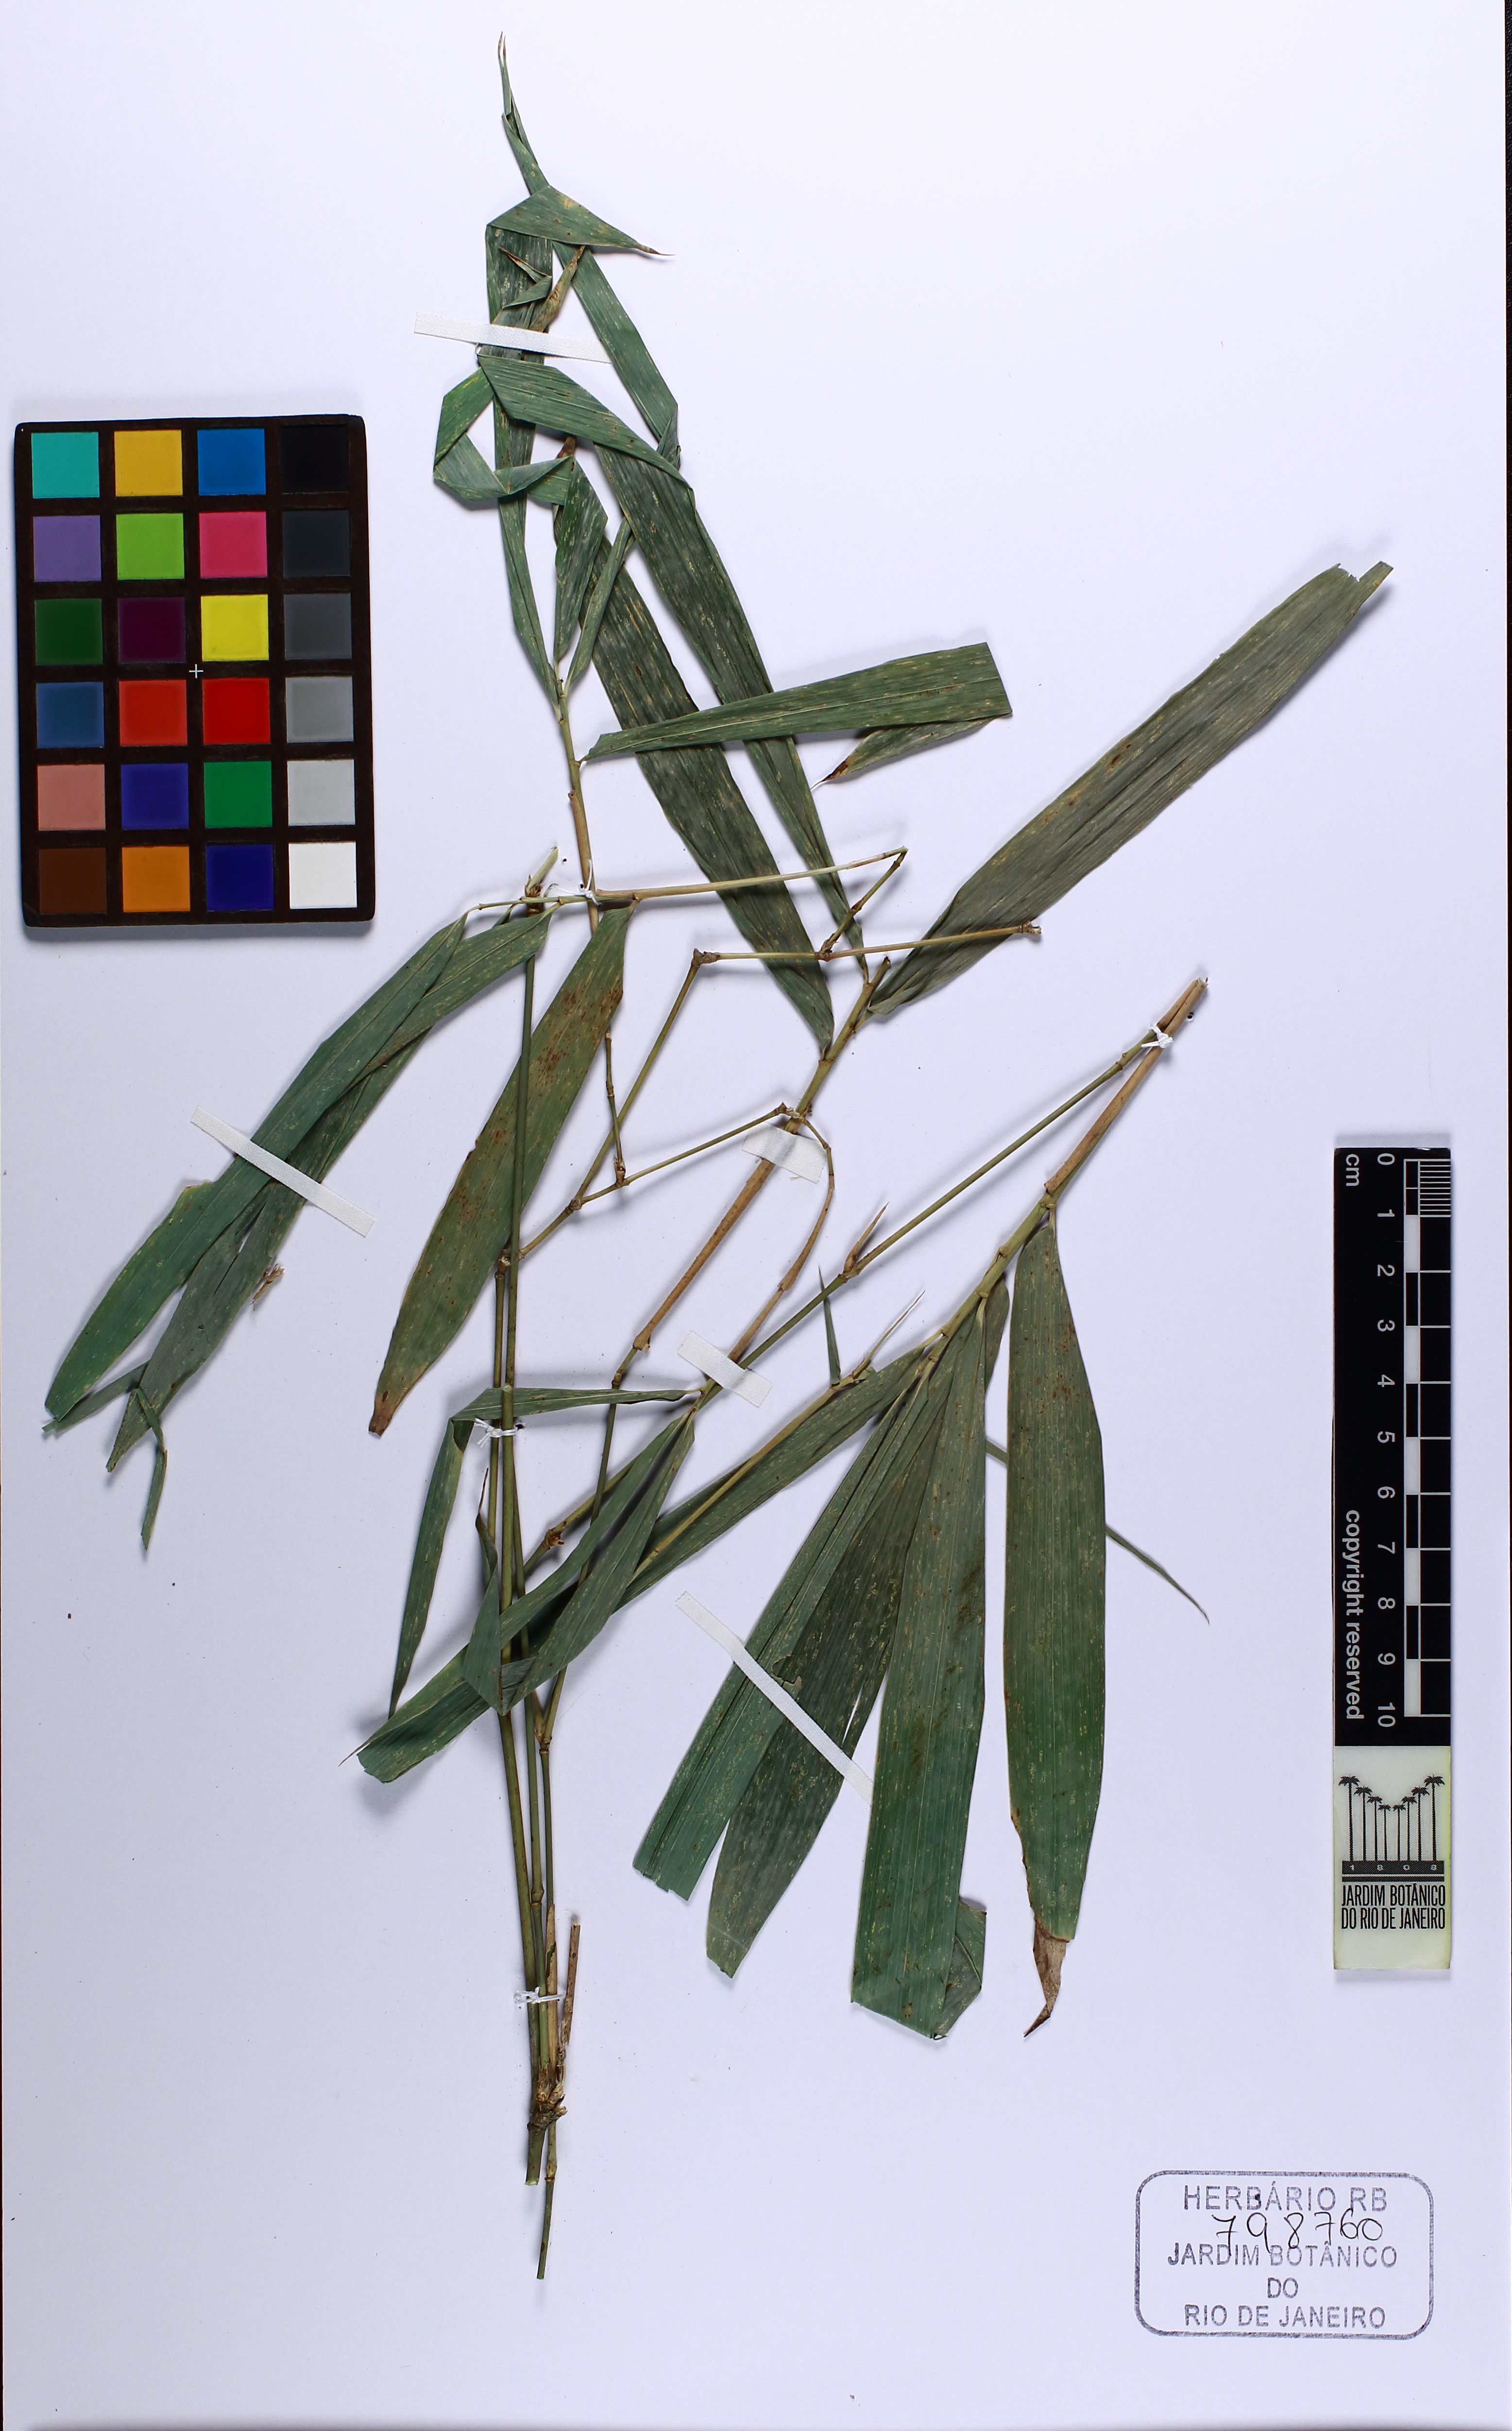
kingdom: Plantae
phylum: Tracheophyta
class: Liliopsida
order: Poales
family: Poaceae
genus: Bambusa
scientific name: Bambusa vulgaris
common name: Common bamboo
